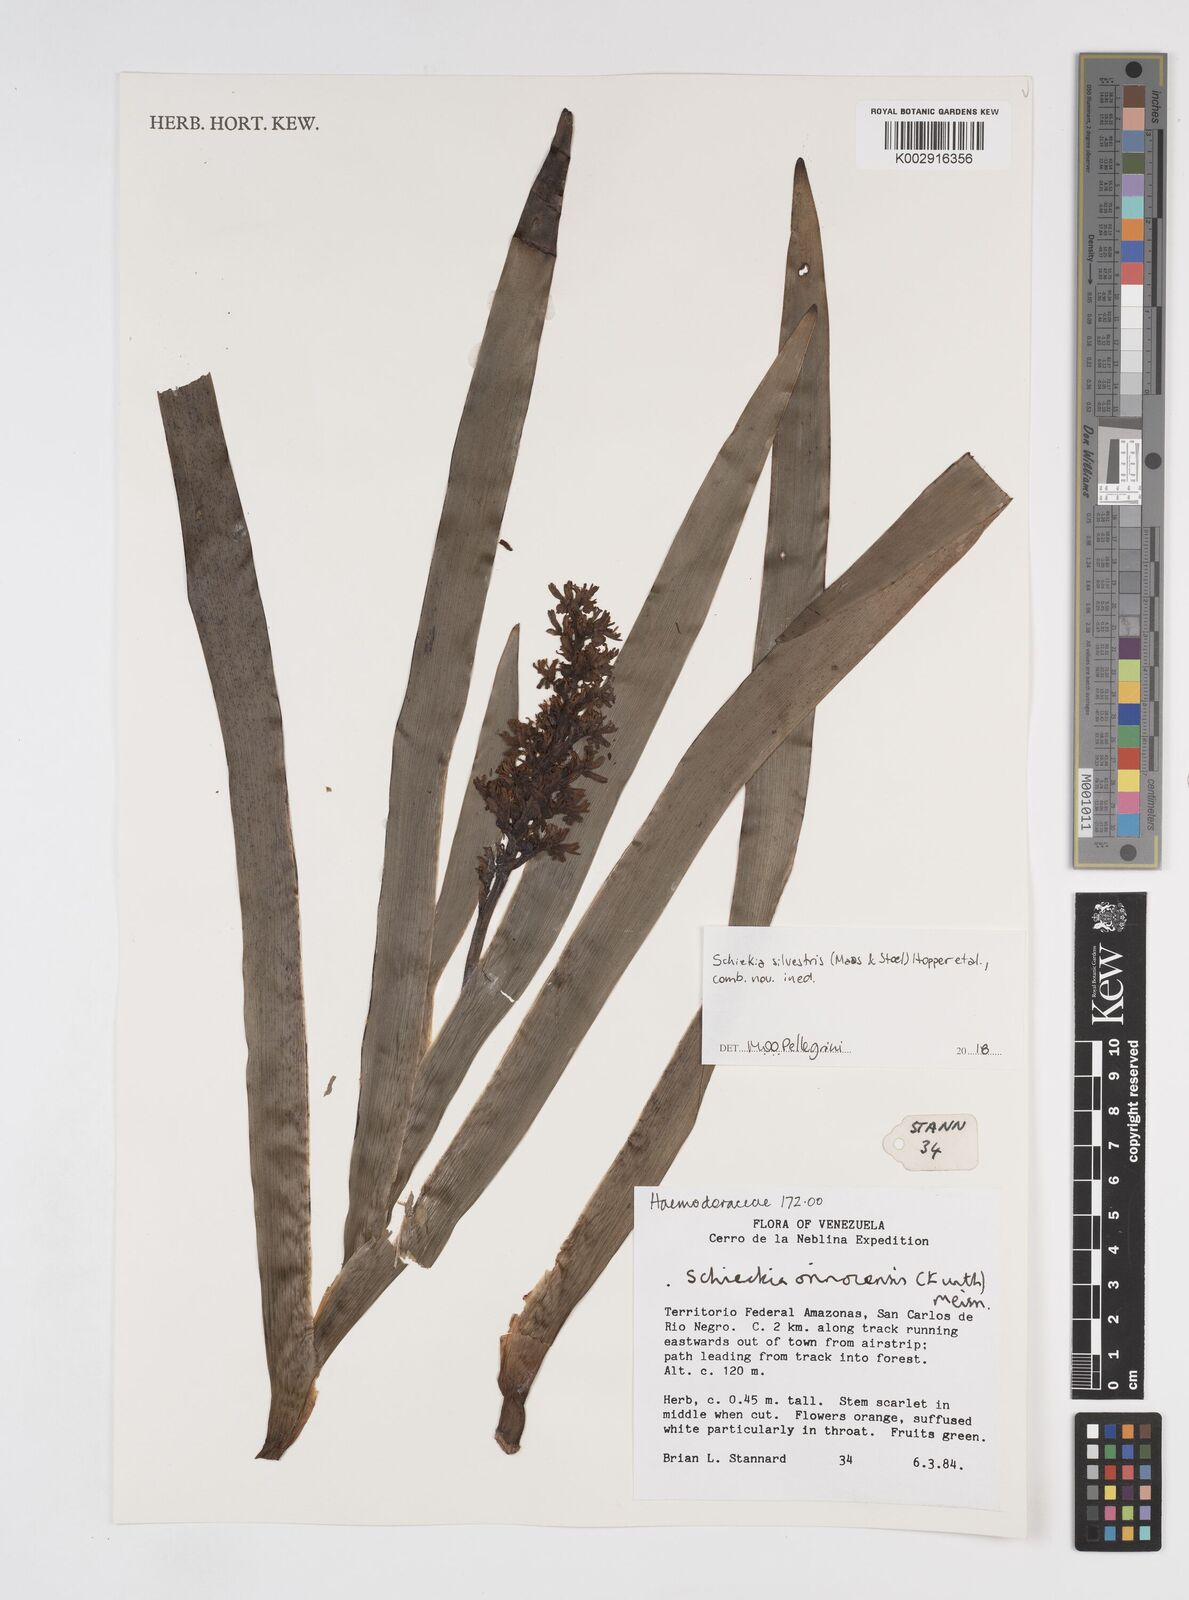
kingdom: Plantae
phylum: Tracheophyta
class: Liliopsida
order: Commelinales
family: Haemodoraceae
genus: Schiekia
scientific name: Schiekia orinocensis
